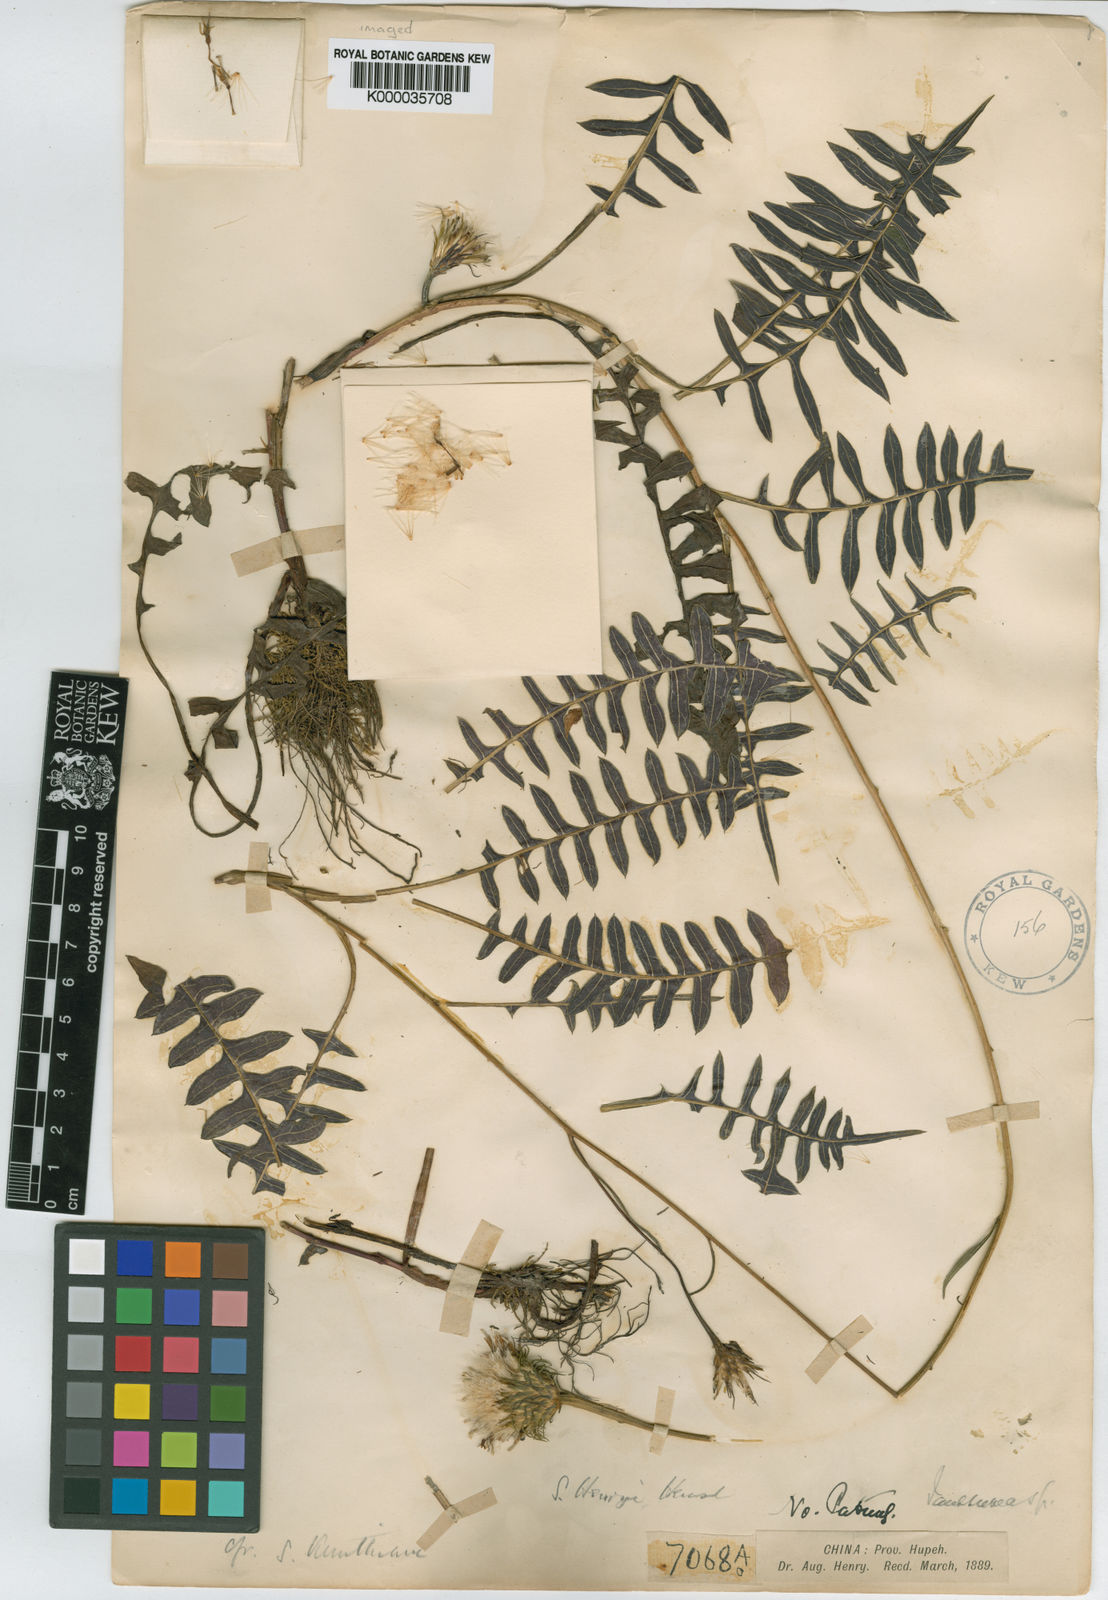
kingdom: Plantae
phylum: Tracheophyta
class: Magnoliopsida
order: Asterales
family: Asteraceae
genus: Saussurea
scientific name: Saussurea henryi
